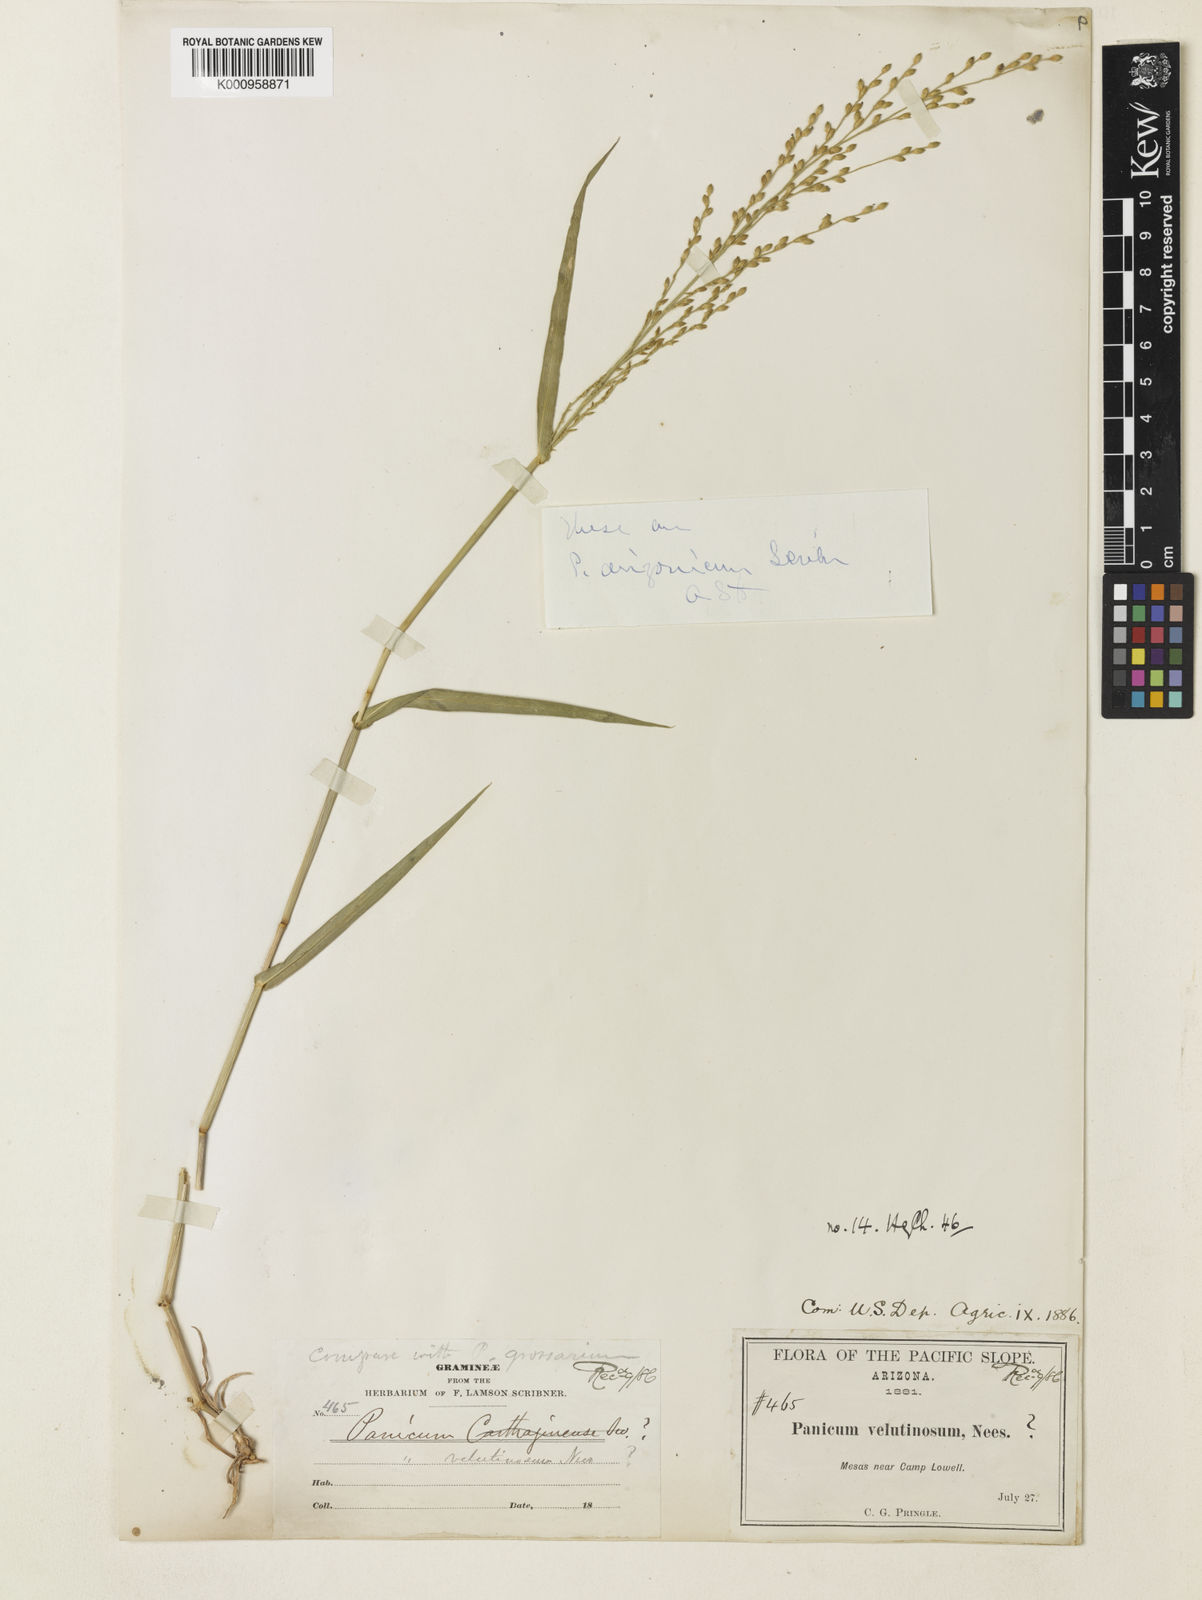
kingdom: Plantae
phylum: Tracheophyta
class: Liliopsida
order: Poales
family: Poaceae
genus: Urochloa
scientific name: Urochloa arizonica
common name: Arizona signal grass
